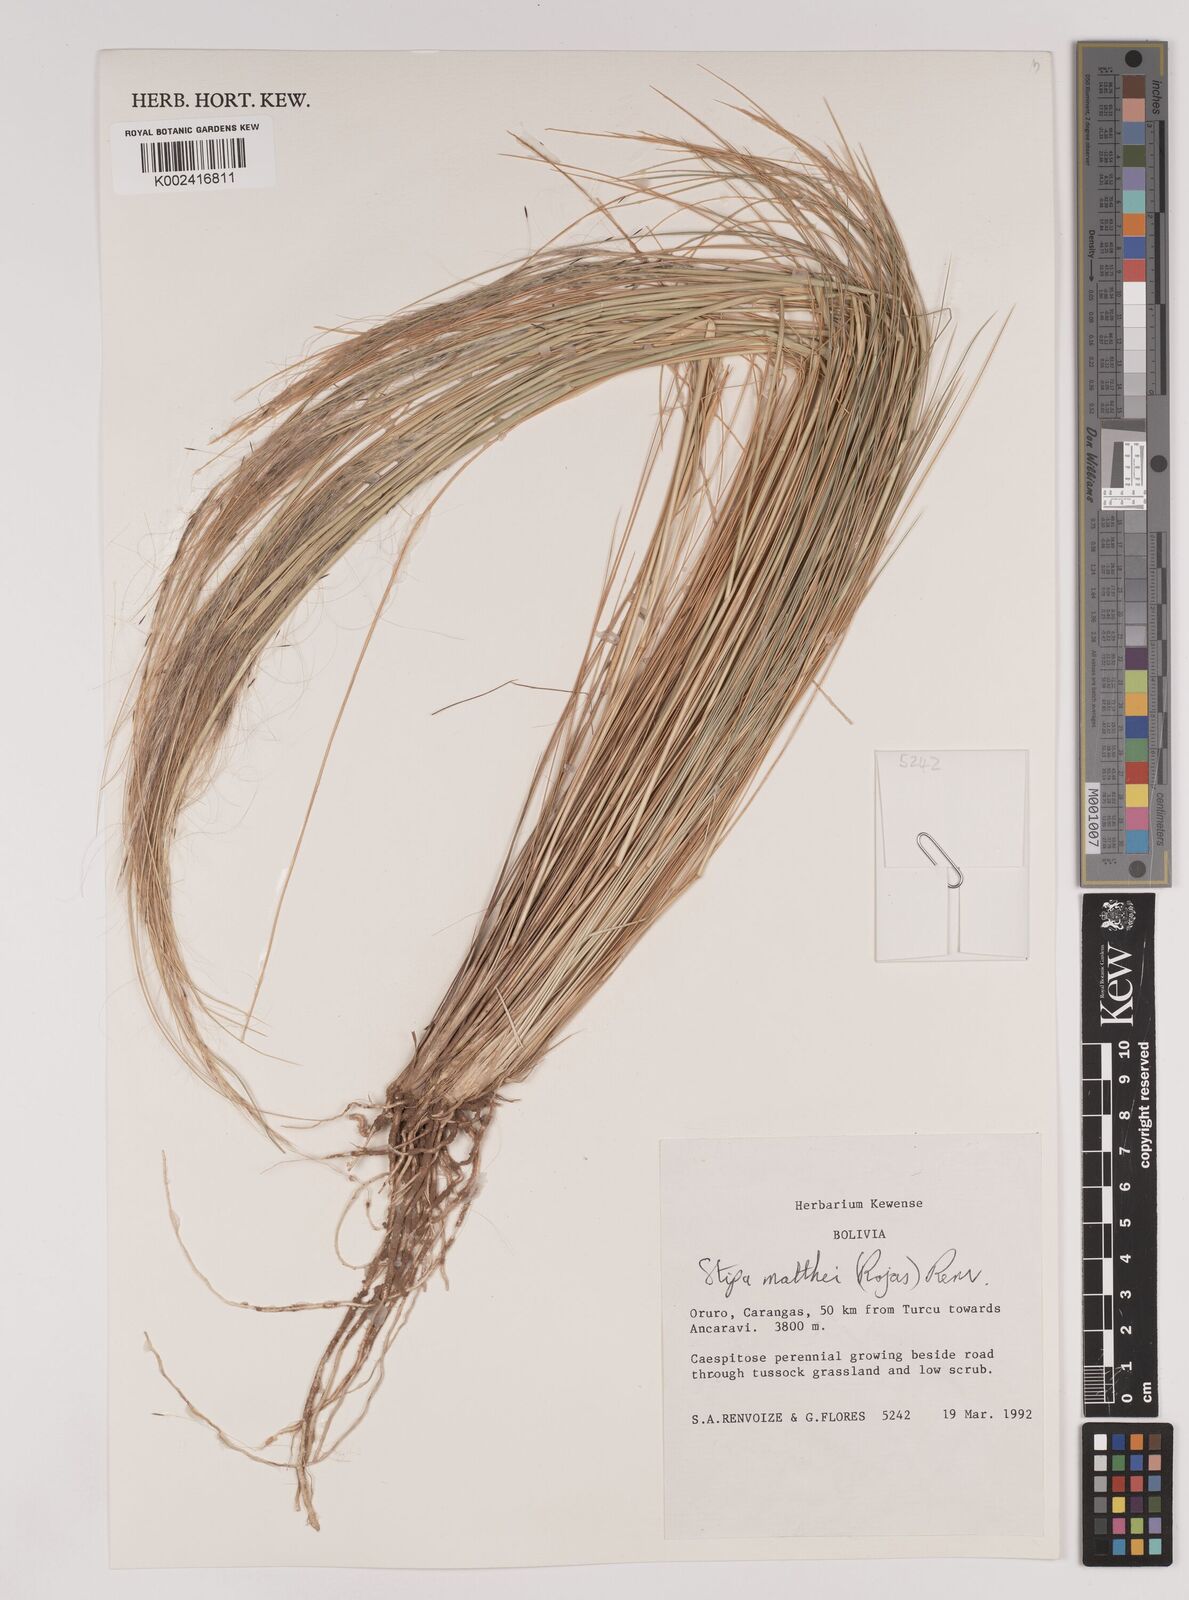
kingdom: Plantae
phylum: Tracheophyta
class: Liliopsida
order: Poales
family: Poaceae
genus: Stipa
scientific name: Stipa
